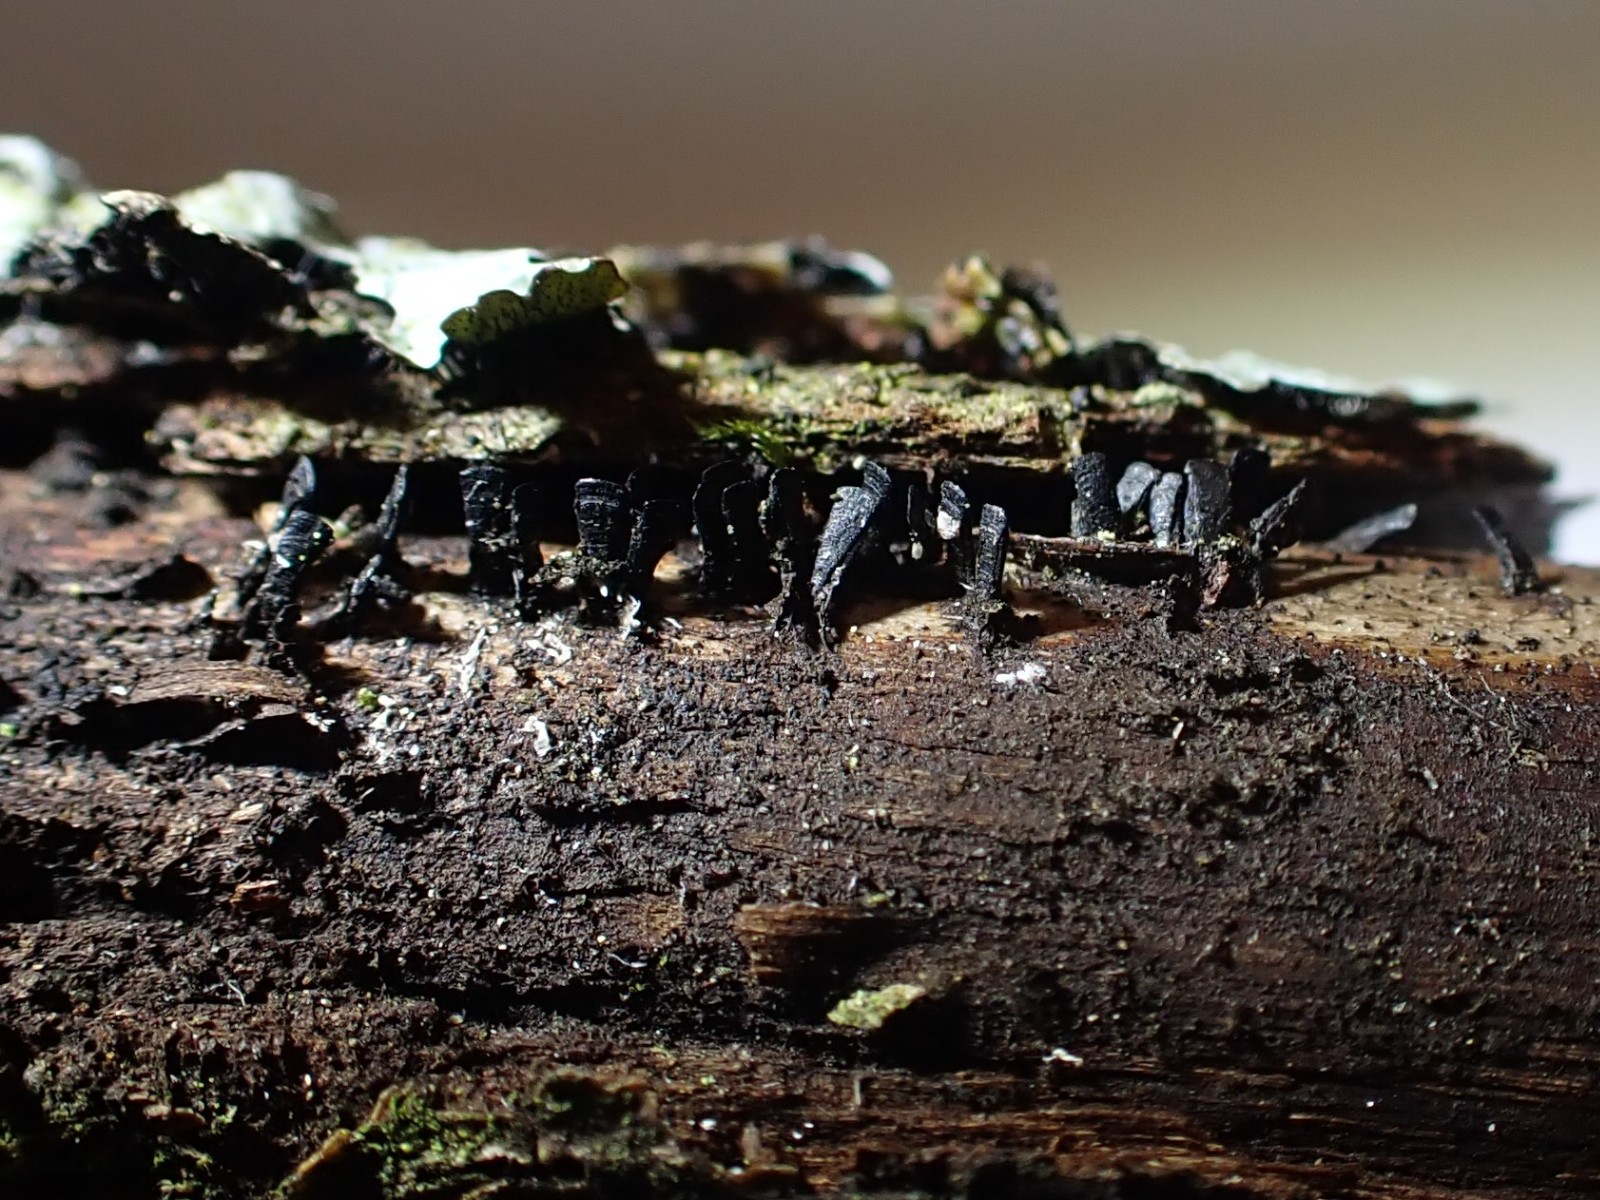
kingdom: Fungi
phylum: Ascomycota
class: Eurotiomycetes
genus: Glyphium
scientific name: Glyphium elatum
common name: kuløkse
